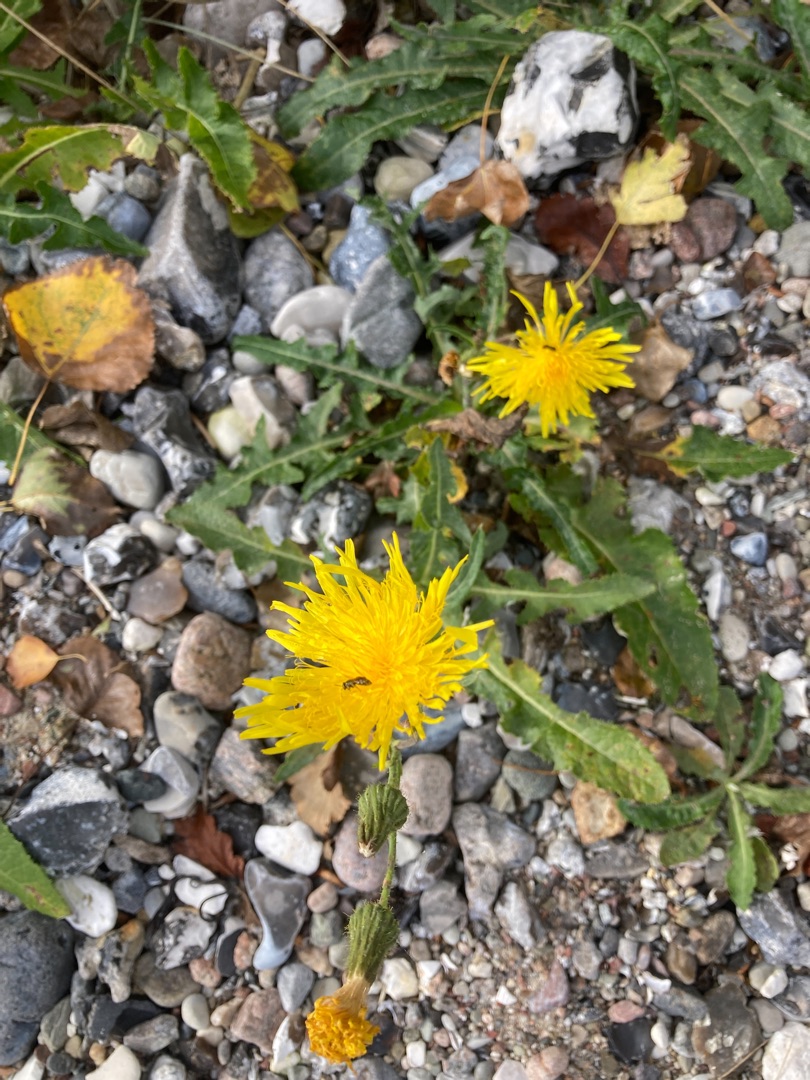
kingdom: Plantae
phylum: Tracheophyta
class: Magnoliopsida
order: Asterales
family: Asteraceae
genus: Sonchus
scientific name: Sonchus arvensis
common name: Ager-svinemælk
